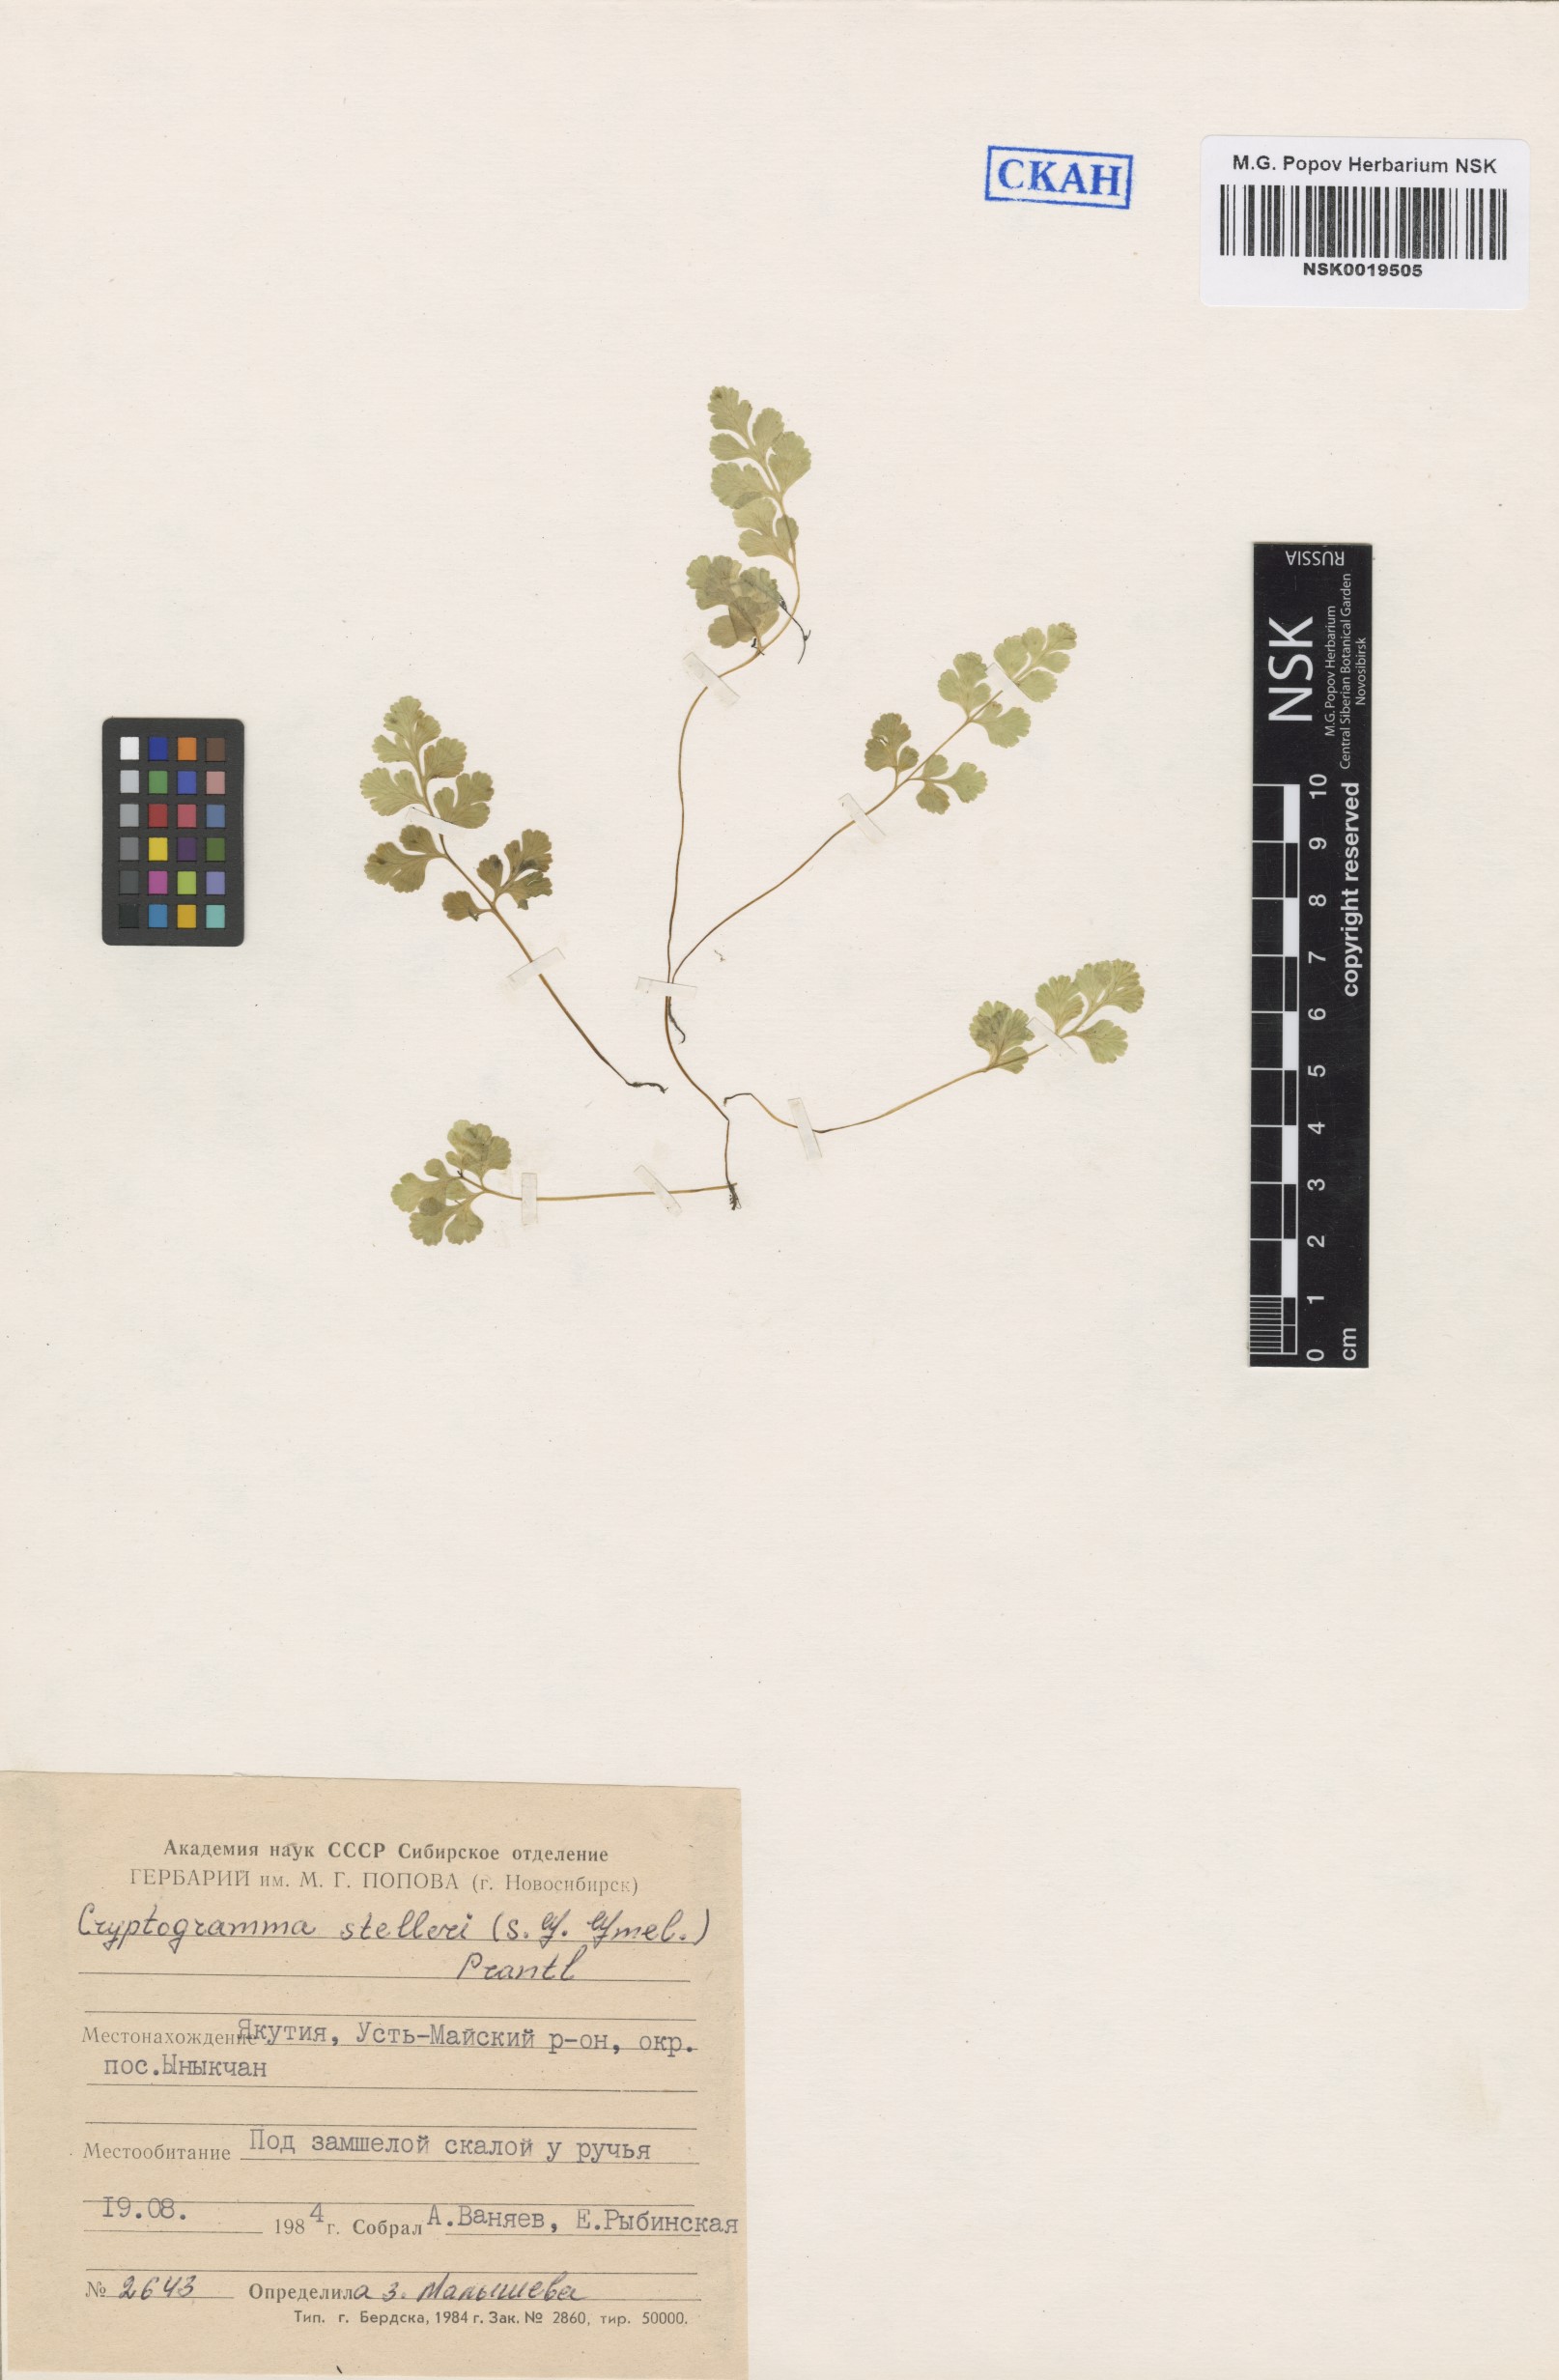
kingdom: Plantae
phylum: Tracheophyta
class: Polypodiopsida
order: Polypodiales
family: Pteridaceae
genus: Cryptogramma
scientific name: Cryptogramma stelleri
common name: Cliff-brake
